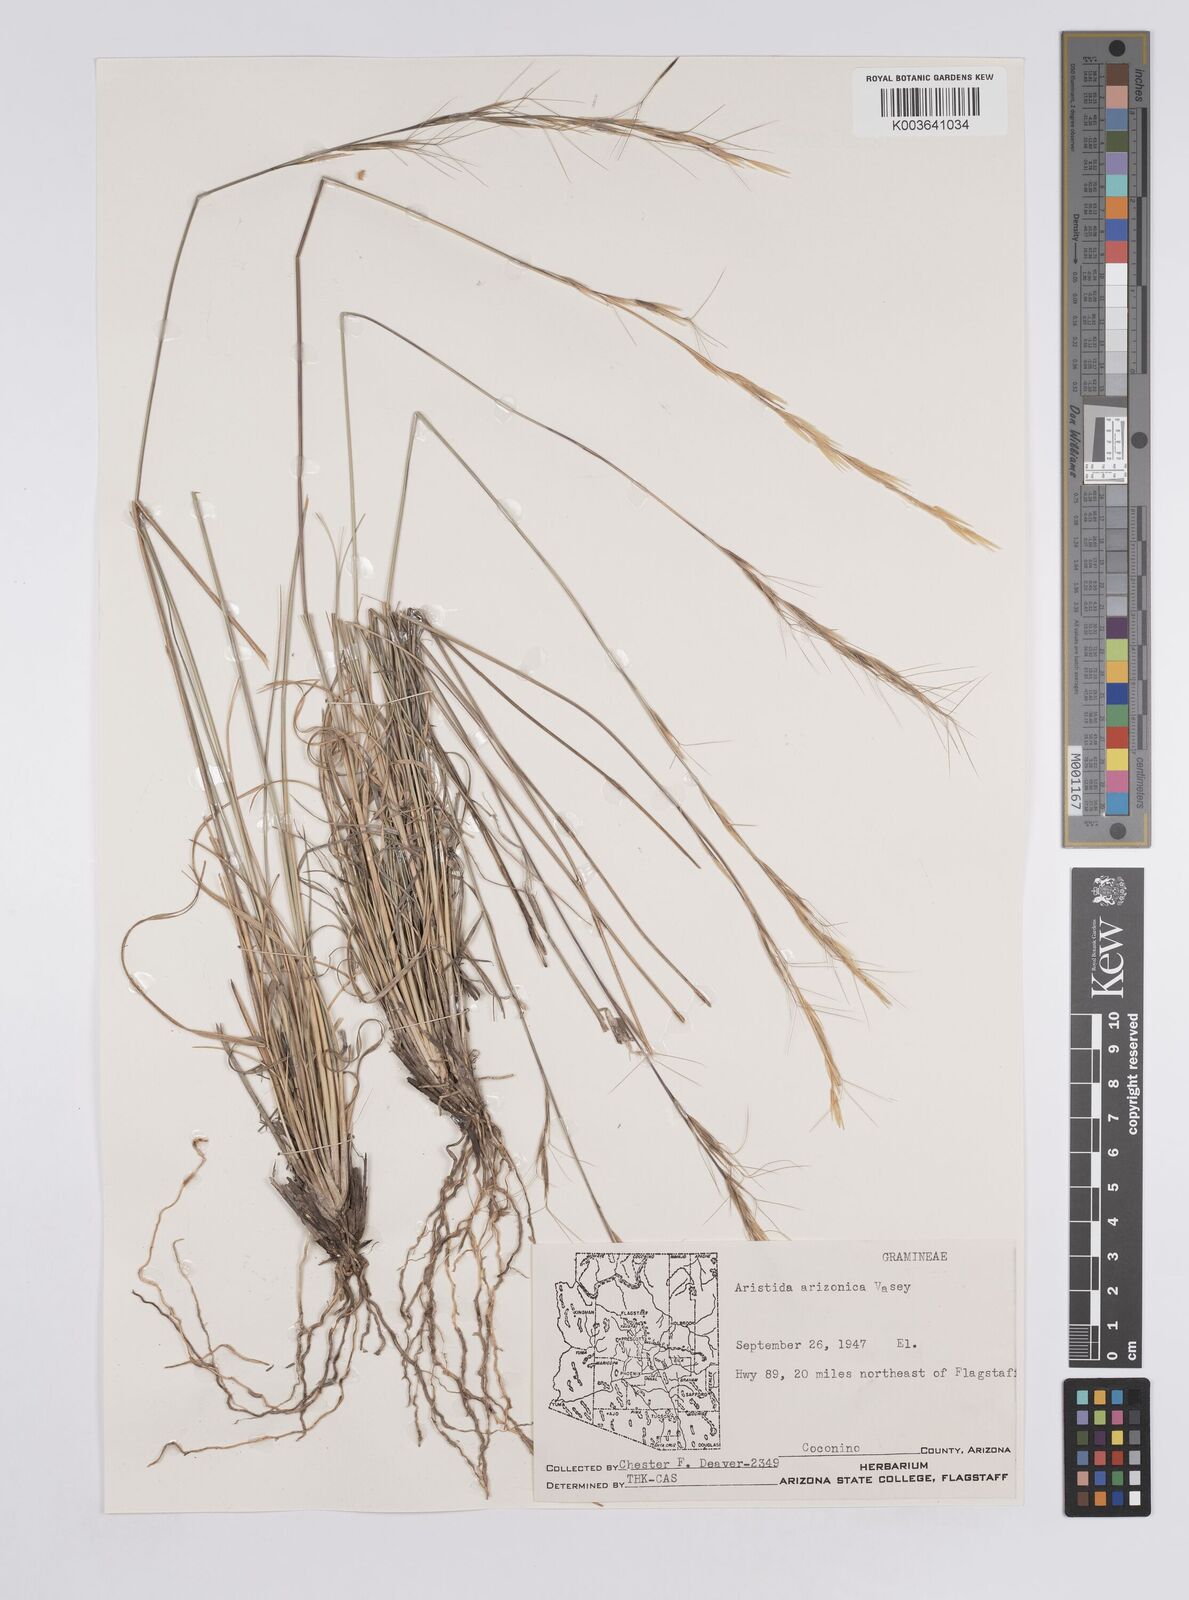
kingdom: Plantae
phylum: Tracheophyta
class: Liliopsida
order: Poales
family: Poaceae
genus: Aristida
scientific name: Aristida arizonica
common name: Arizona threeawn
